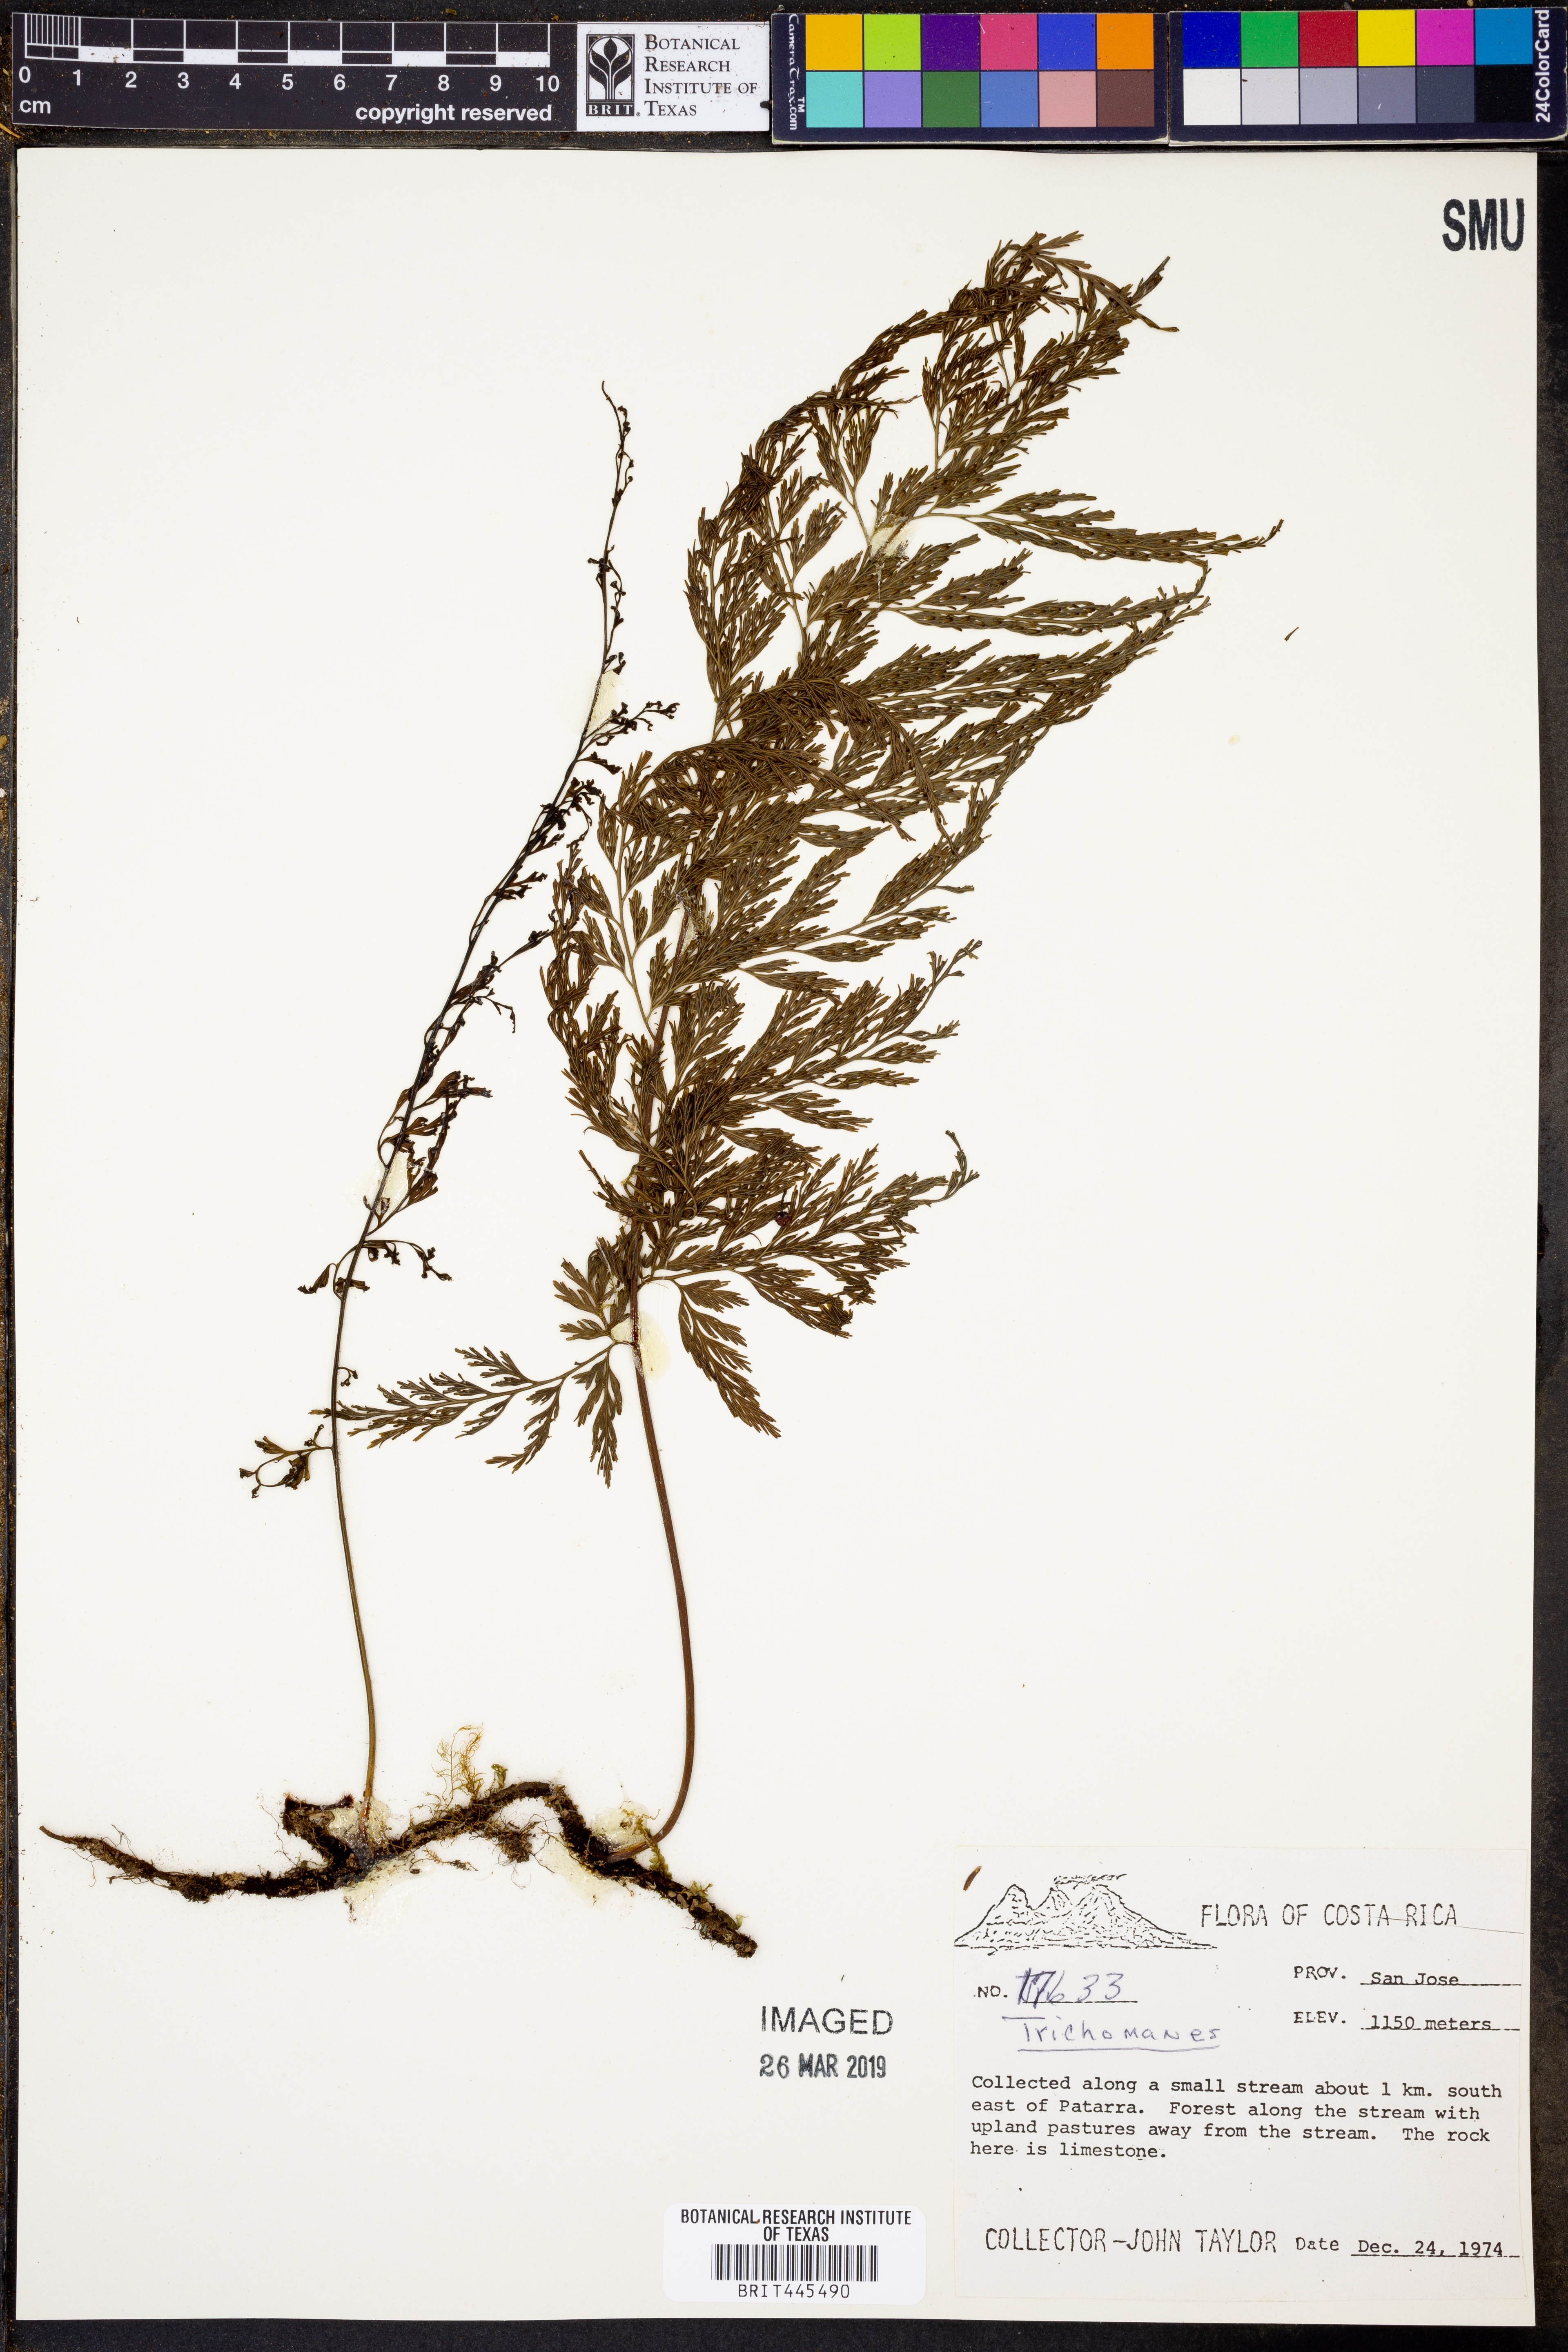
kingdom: Plantae
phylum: Tracheophyta
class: Polypodiopsida
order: Hymenophyllales
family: Hymenophyllaceae
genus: Trichomanes
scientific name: Trichomanes
